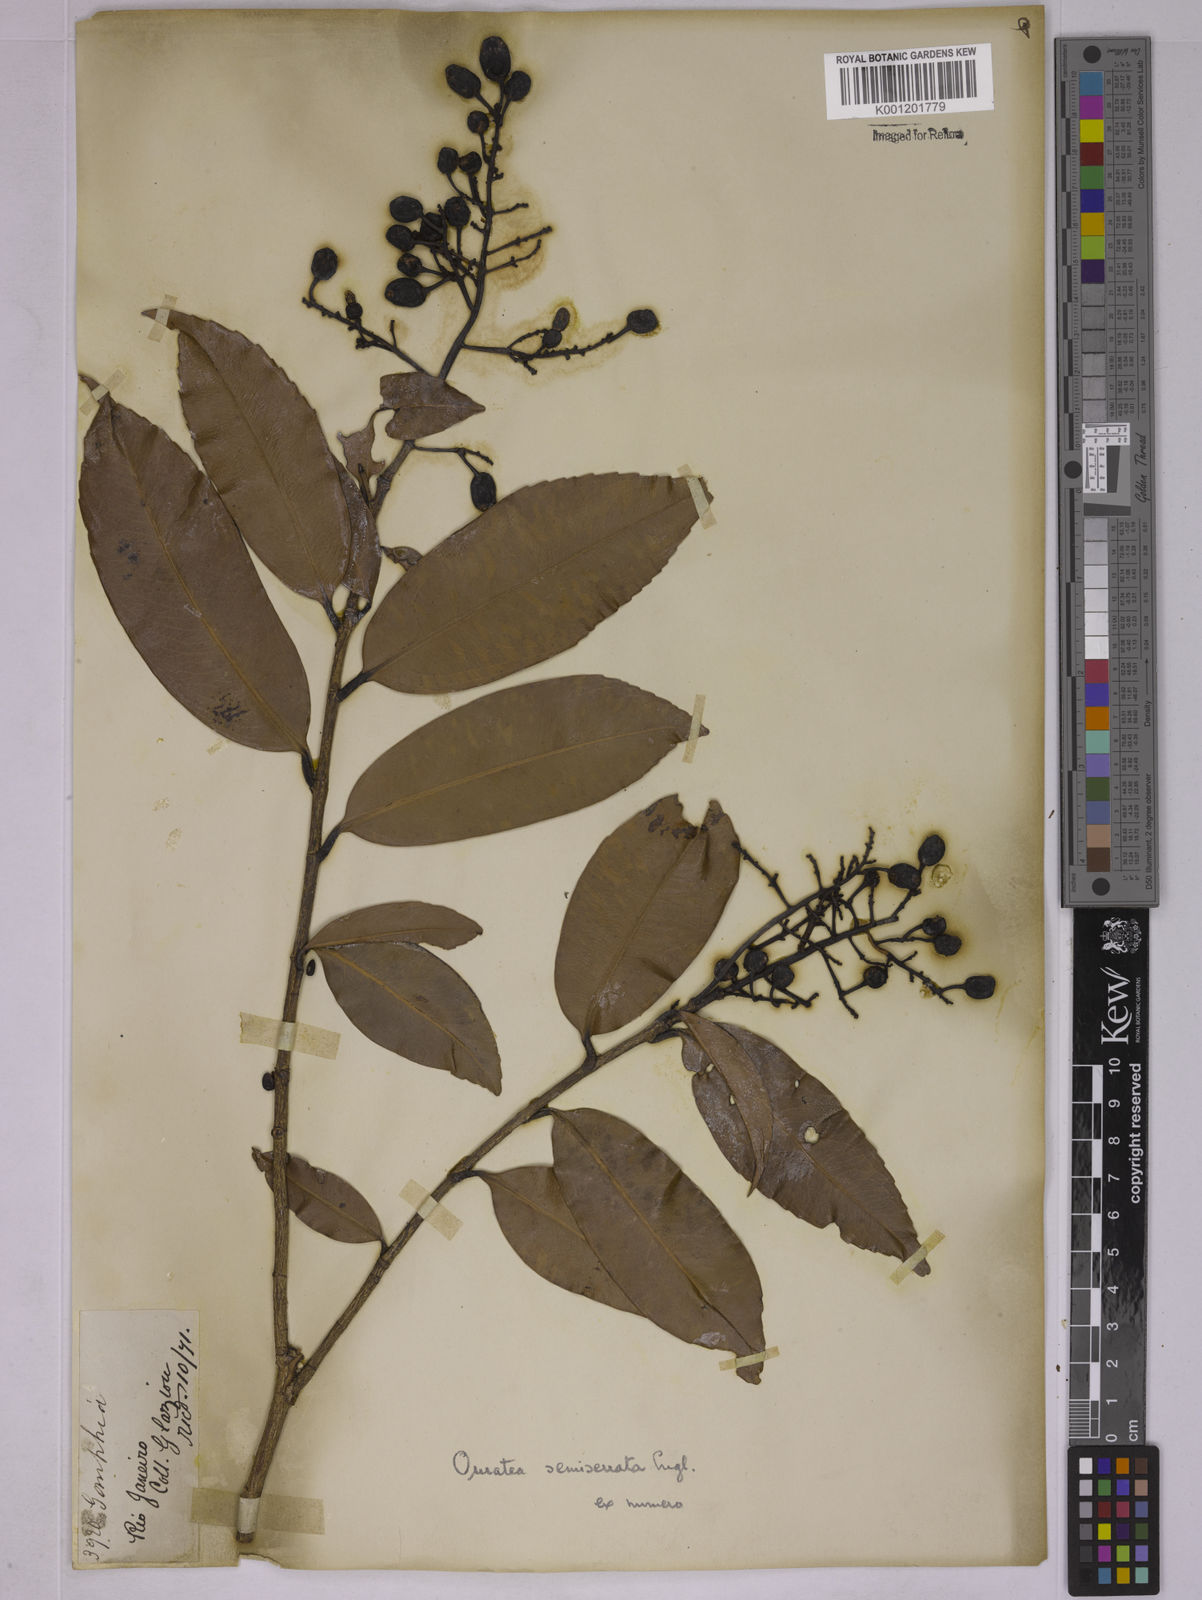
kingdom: Plantae
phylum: Tracheophyta
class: Magnoliopsida
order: Malpighiales
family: Ochnaceae
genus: Ouratea
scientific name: Ouratea semiserrata
